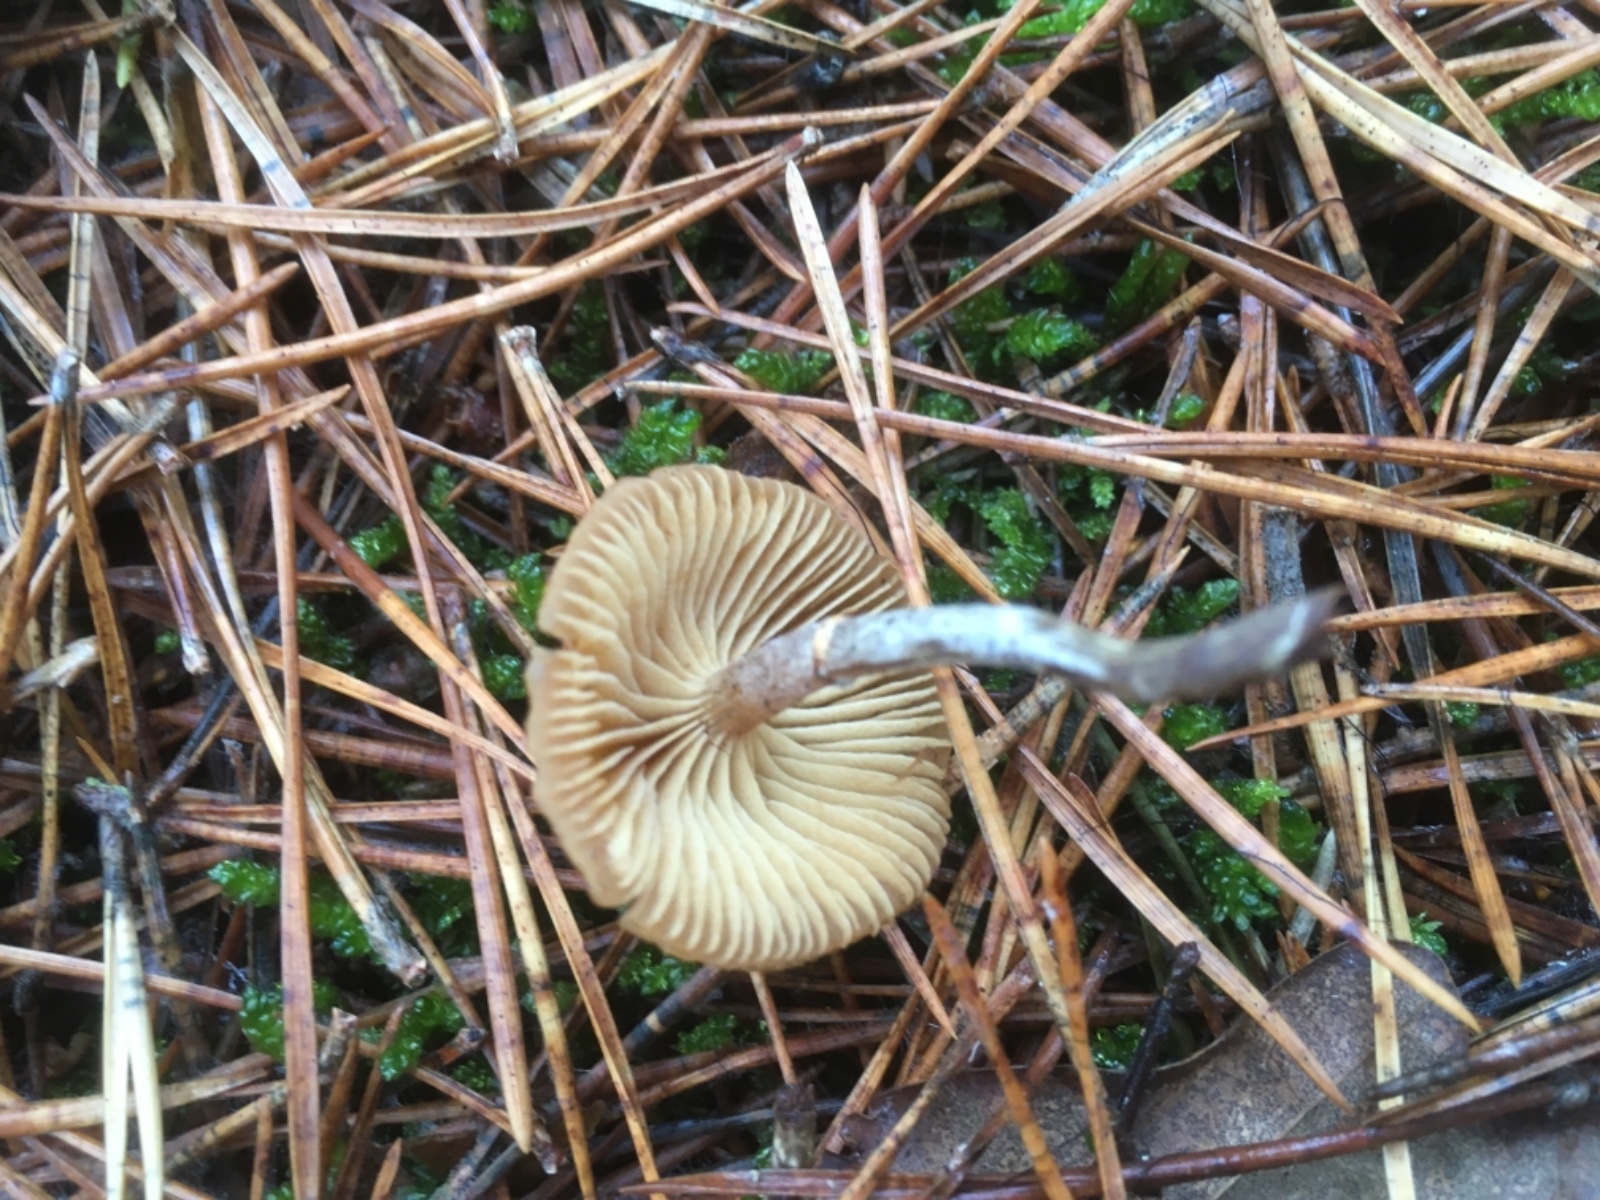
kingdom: Fungi
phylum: Basidiomycota
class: Agaricomycetes
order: Agaricales
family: Hymenogastraceae
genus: Galerina
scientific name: Galerina marginata
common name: randbæltet hjelmhat
